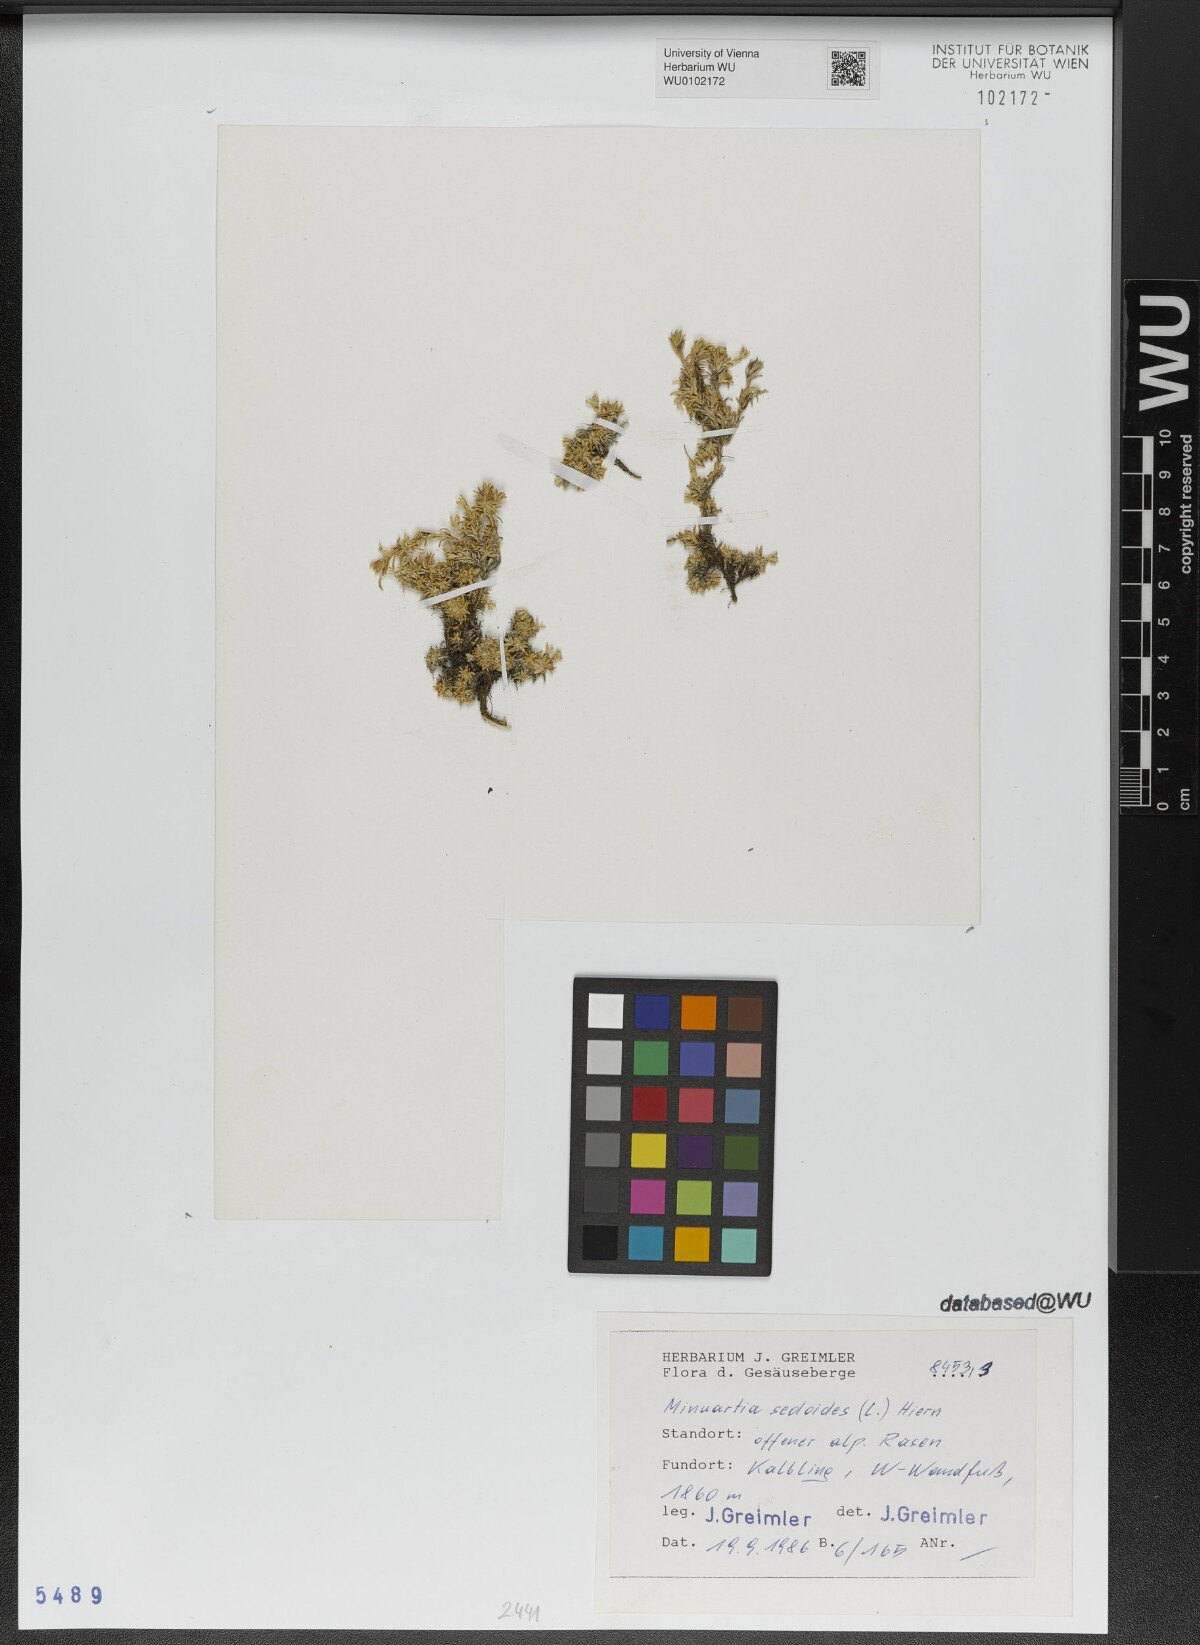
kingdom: Plantae
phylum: Tracheophyta
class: Magnoliopsida
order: Caryophyllales
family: Caryophyllaceae
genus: Cherleria
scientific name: Cherleria sedoides
